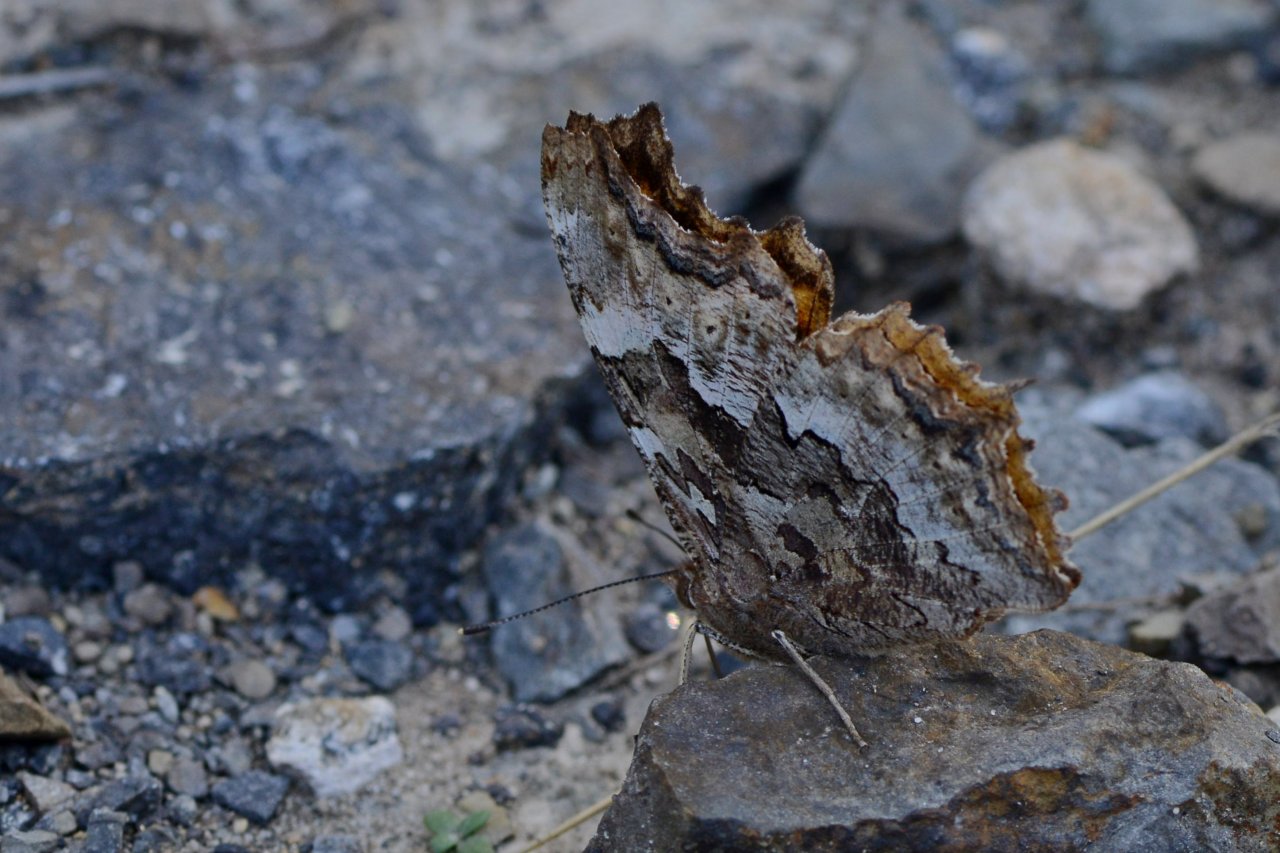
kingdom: Animalia
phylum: Arthropoda
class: Insecta
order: Lepidoptera
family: Nymphalidae
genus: Polygonia
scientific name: Polygonia vaualbum
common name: Compton Tortoiseshell
